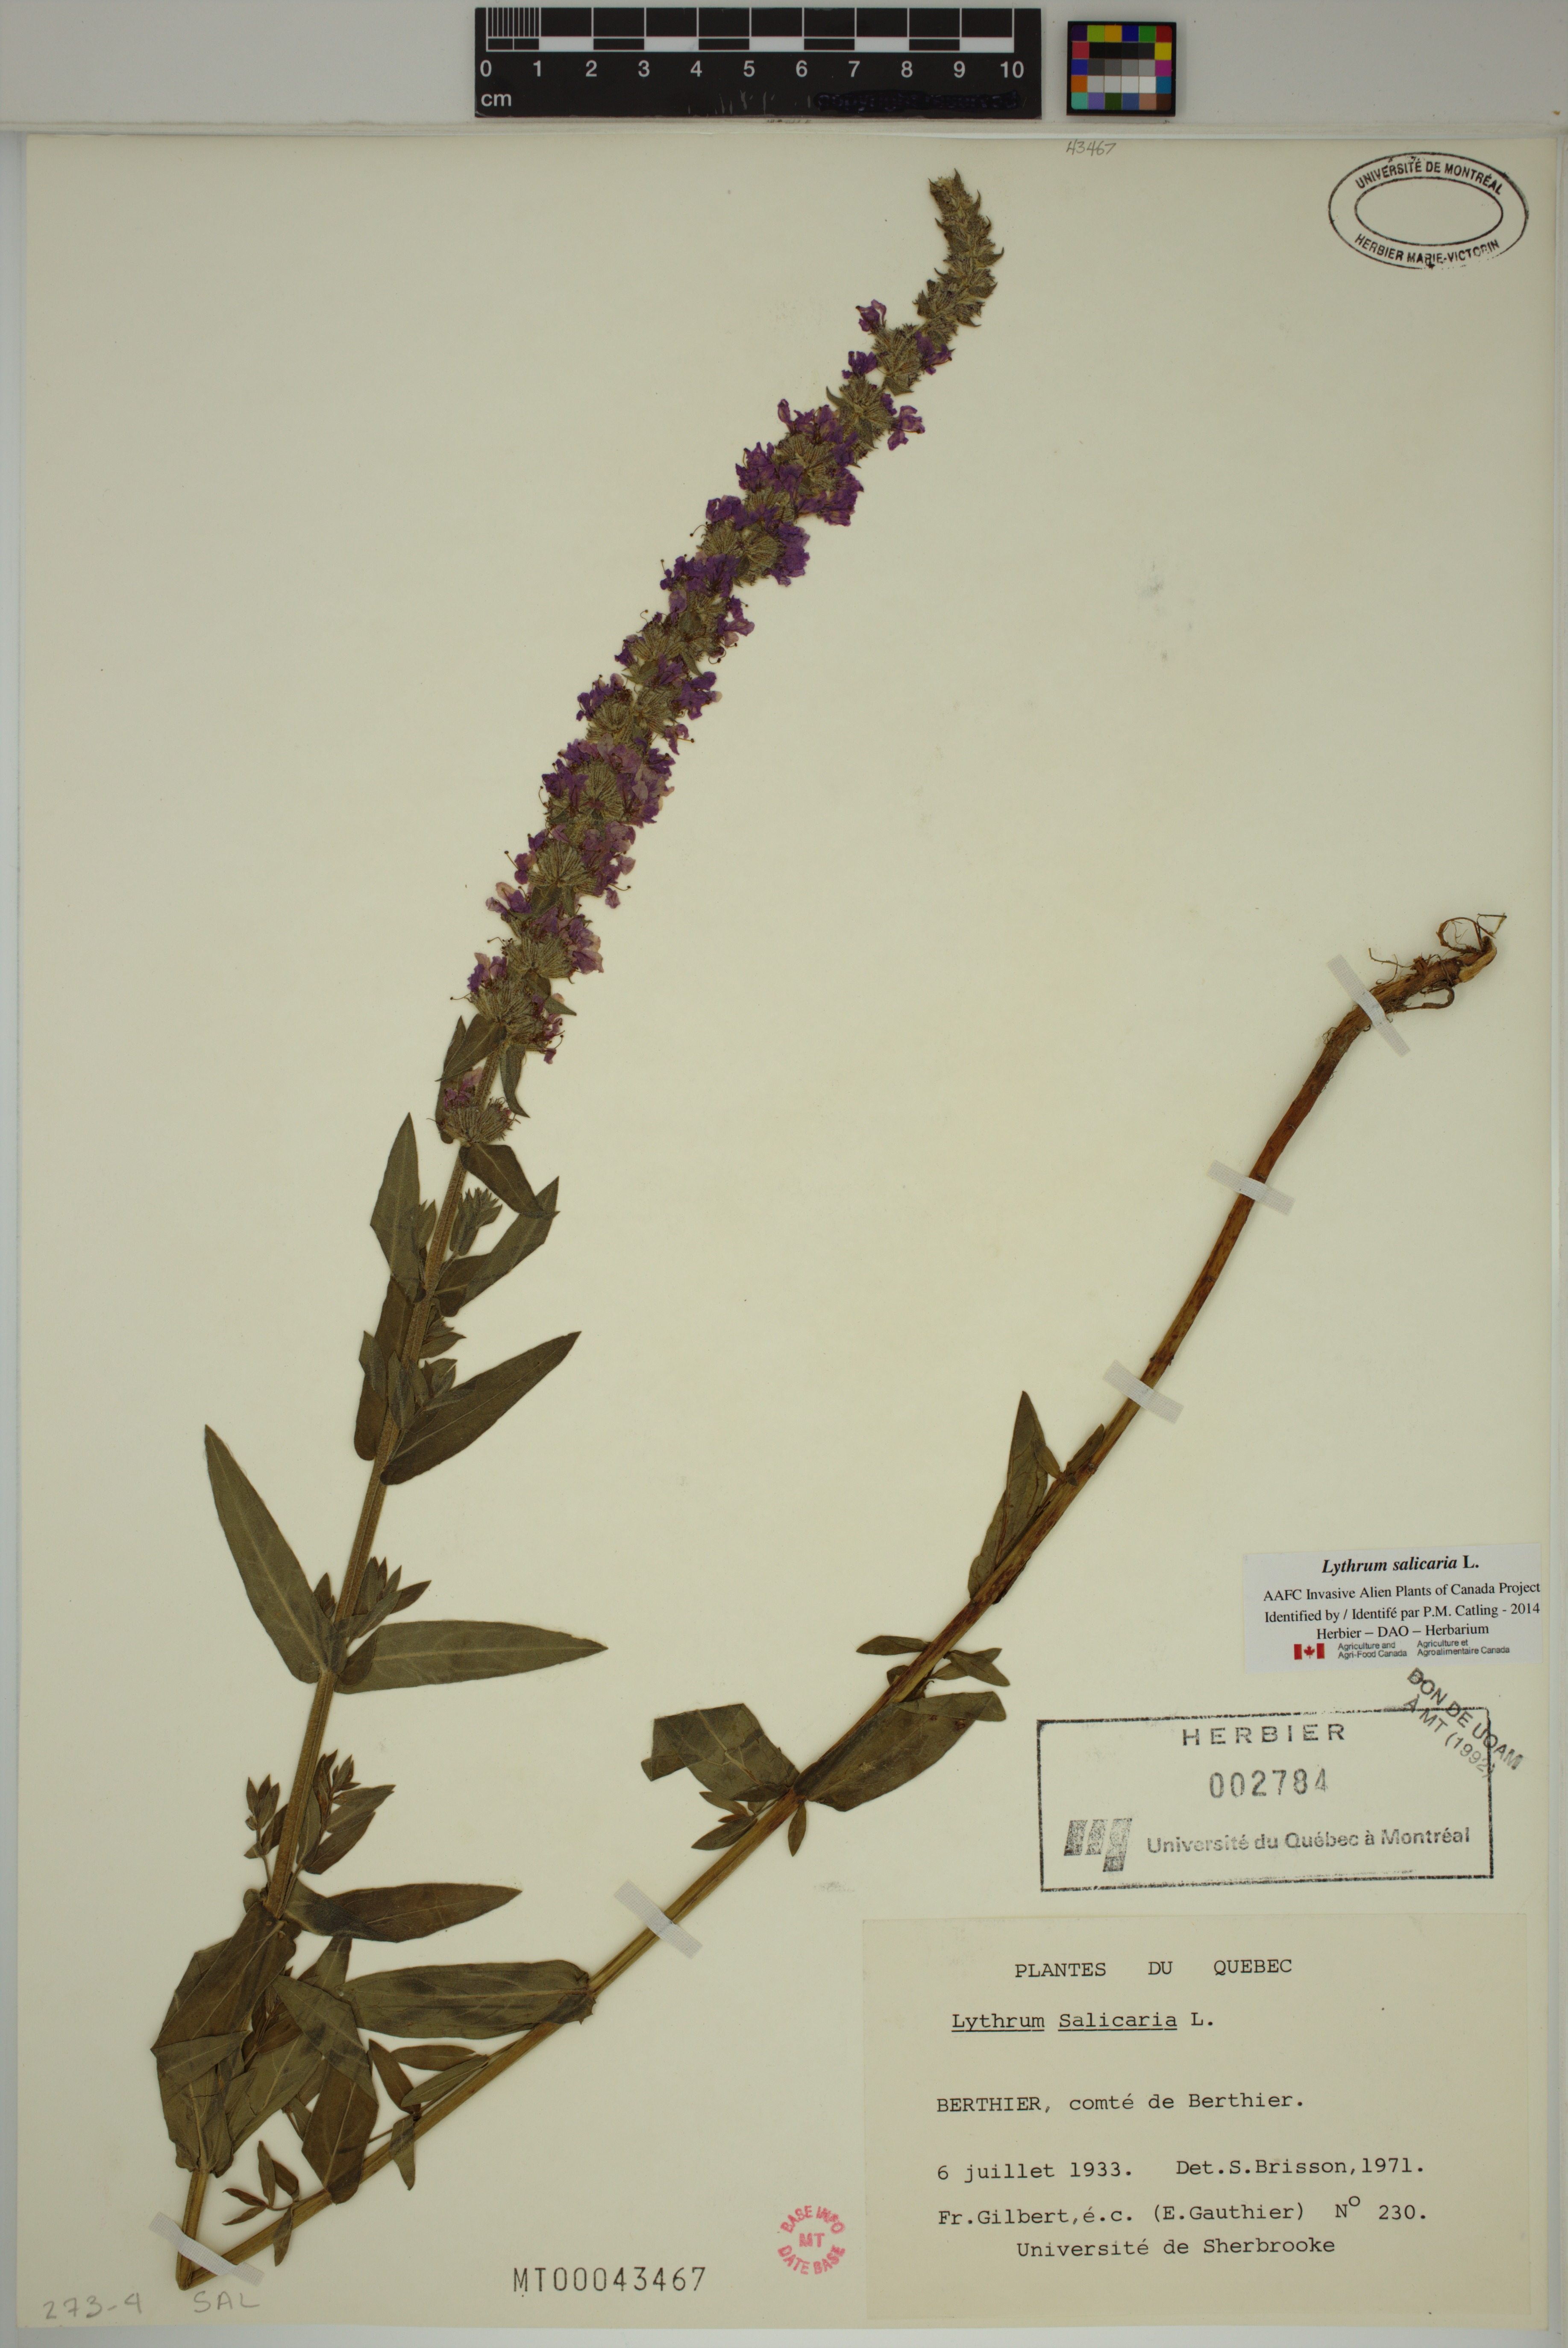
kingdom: Plantae
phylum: Tracheophyta
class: Magnoliopsida
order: Myrtales
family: Lythraceae
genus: Lythrum
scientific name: Lythrum salicaria
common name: Purple loosestrife
